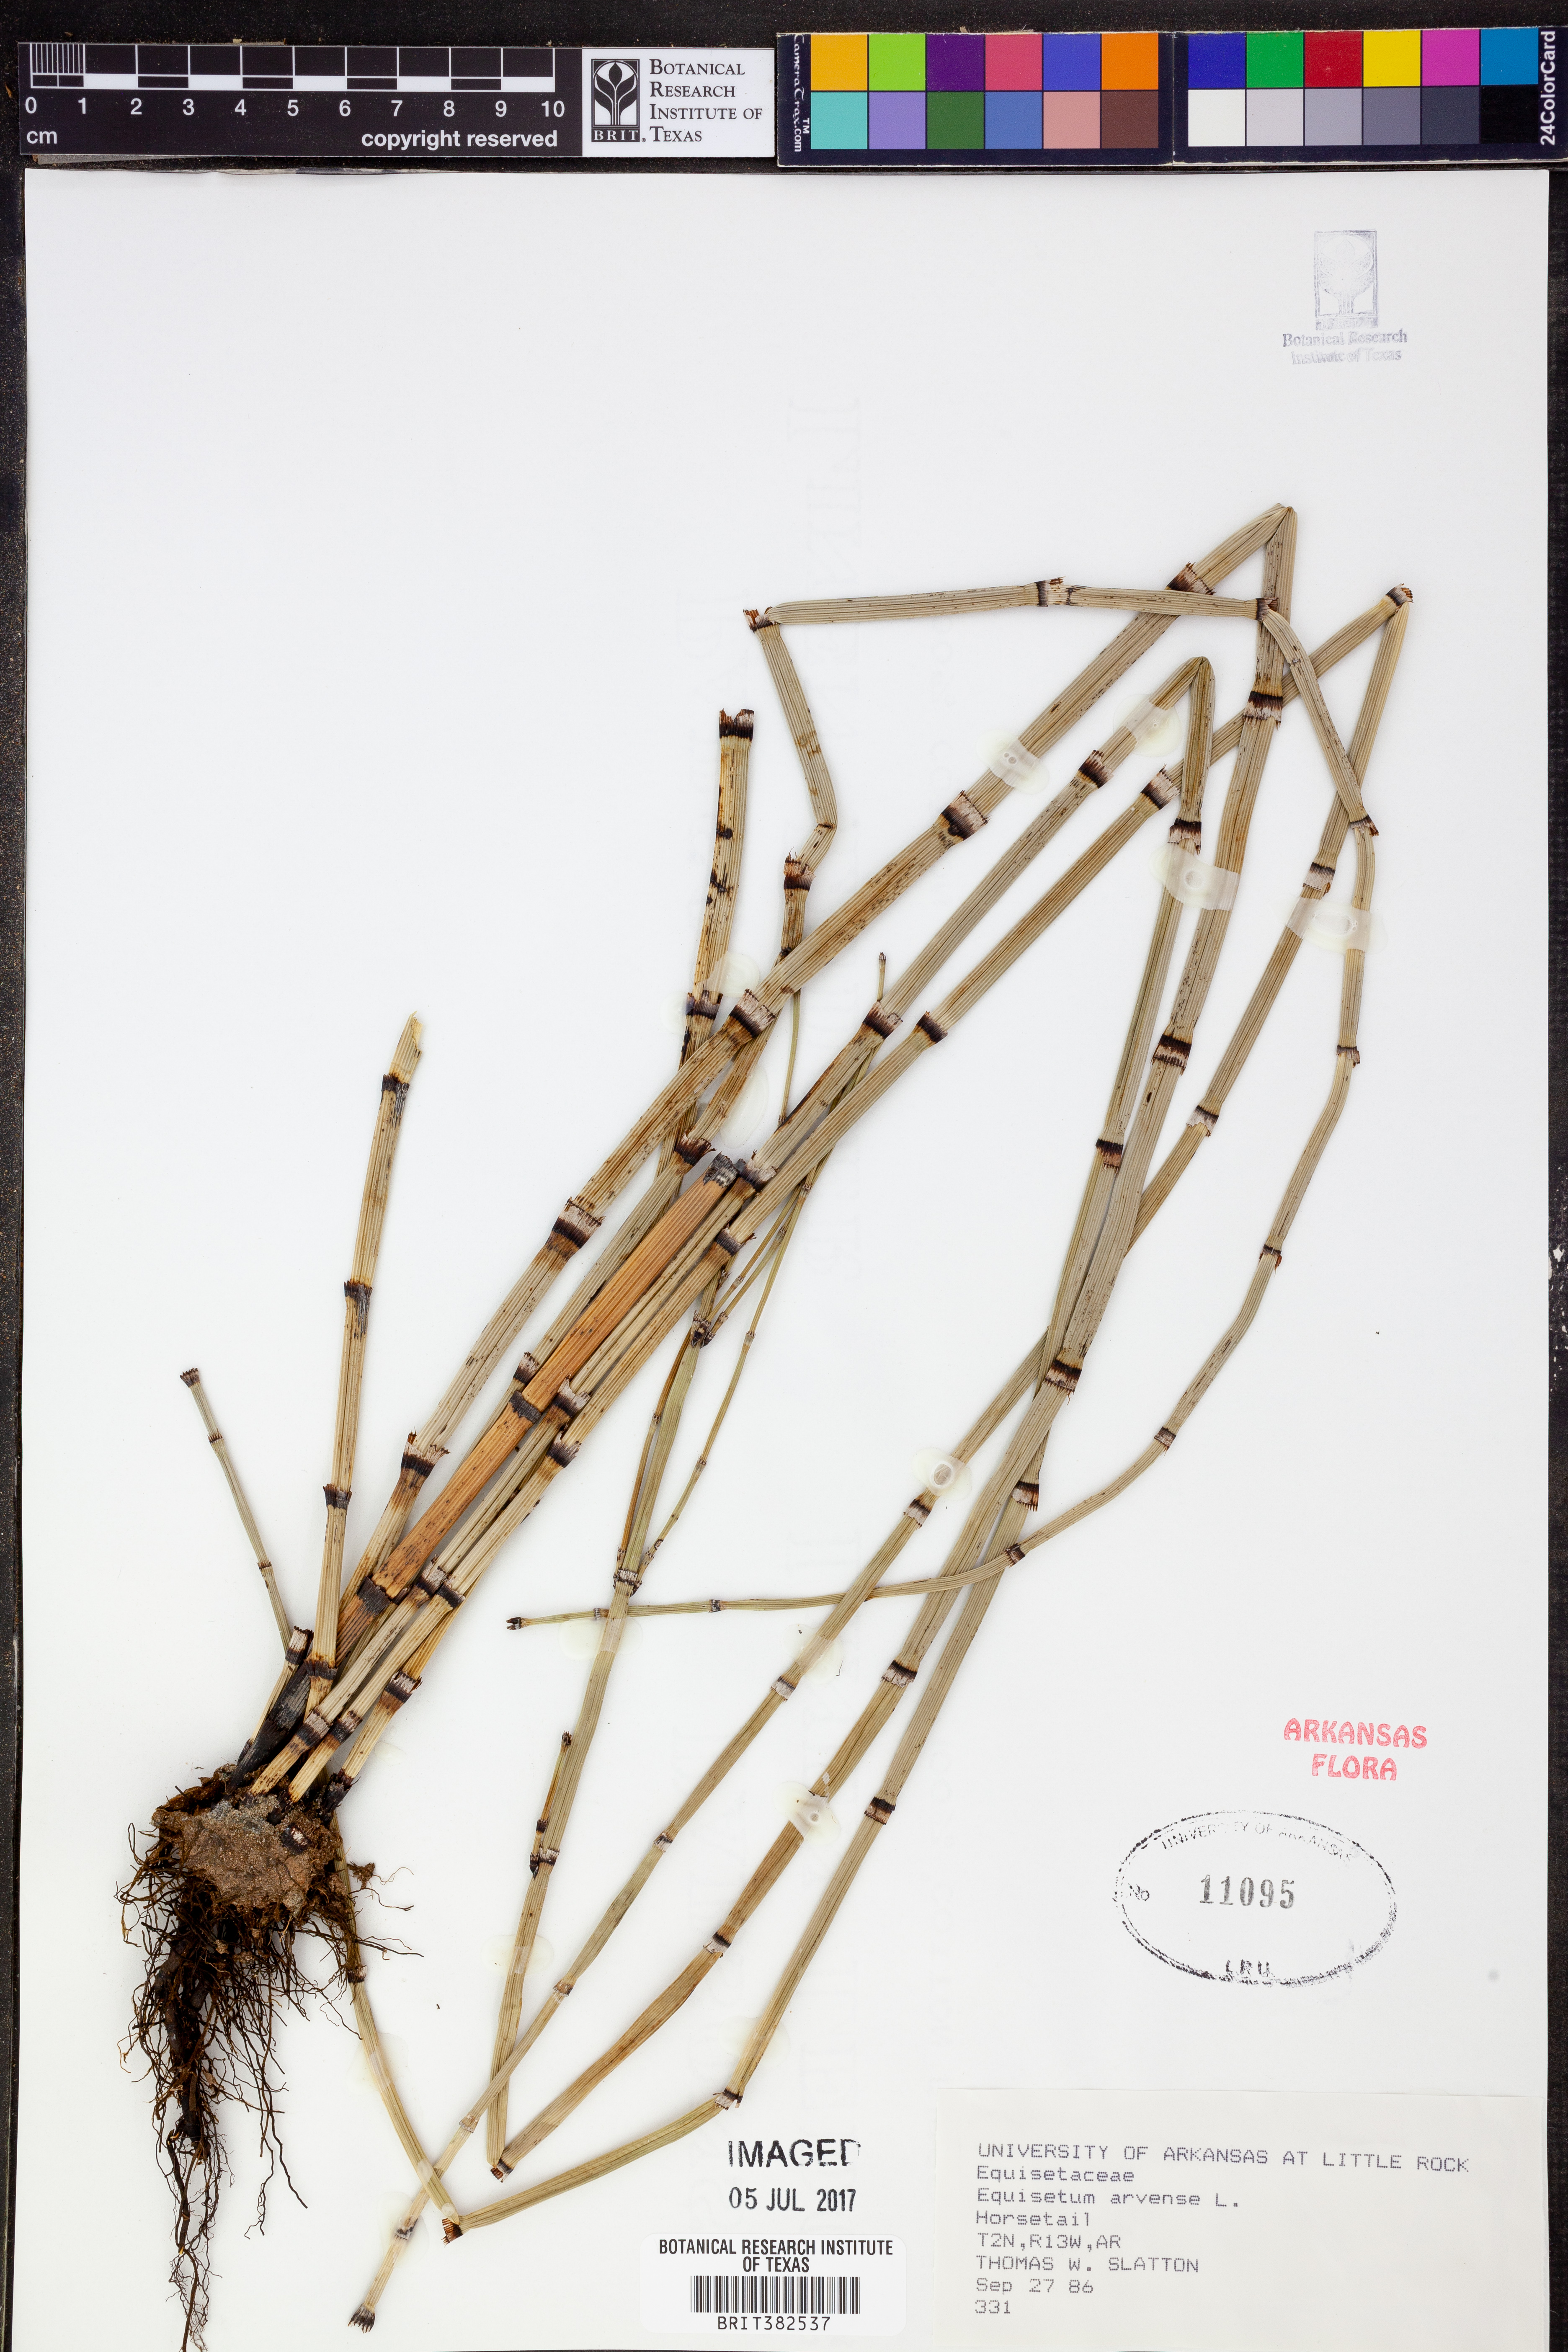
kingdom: Plantae
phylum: Tracheophyta
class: Polypodiopsida
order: Equisetales
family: Equisetaceae
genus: Equisetum
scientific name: Equisetum arvense
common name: Field horsetail
